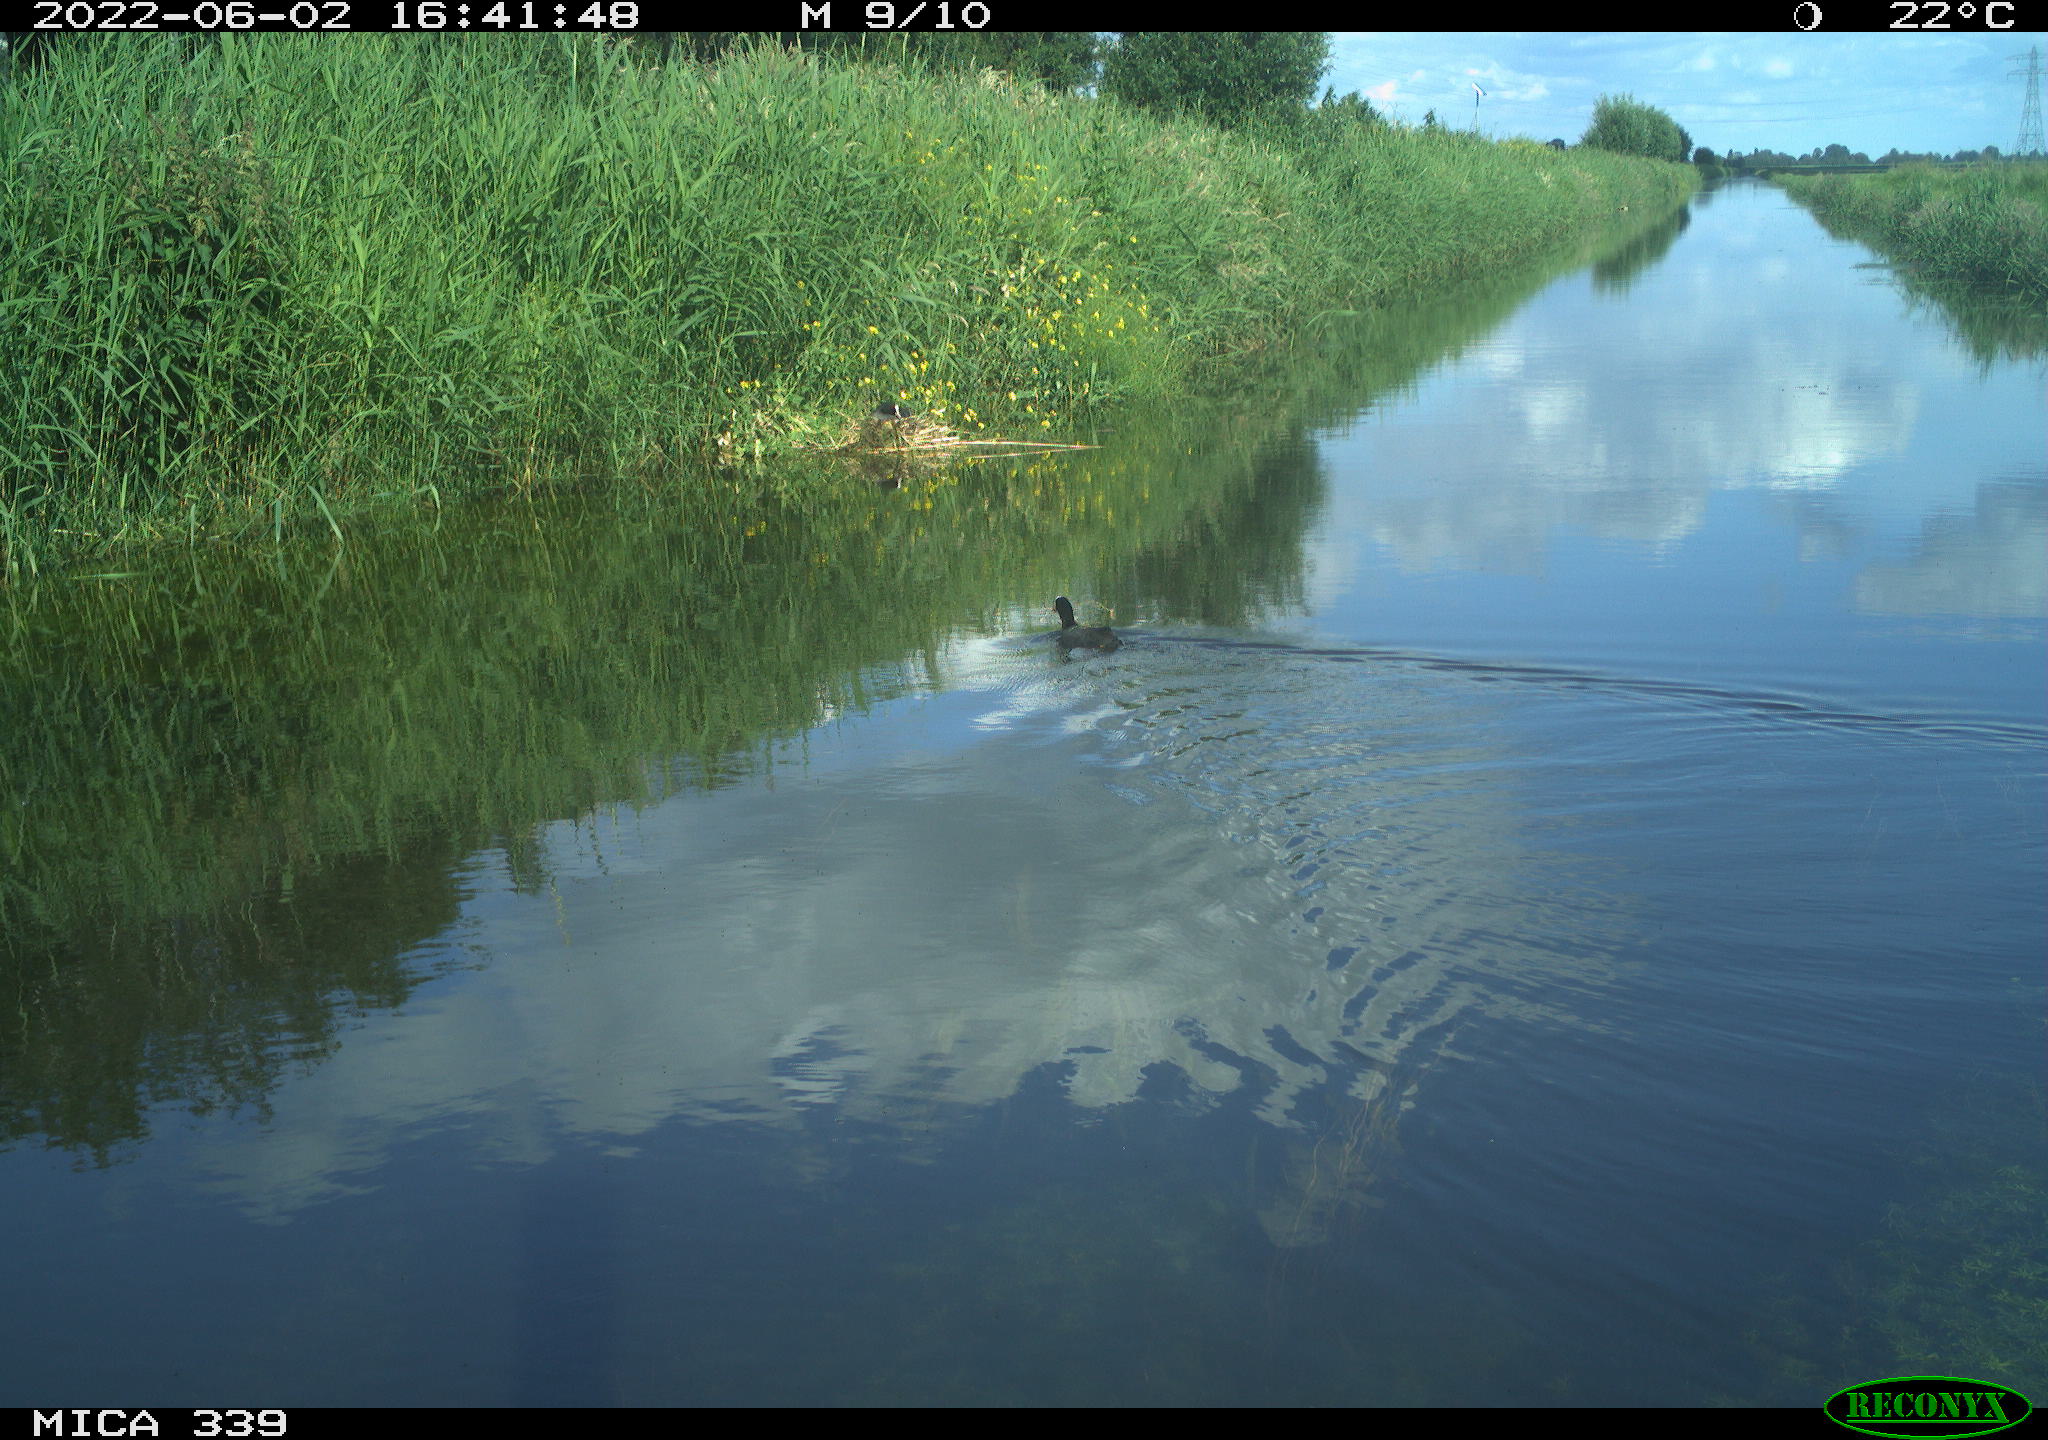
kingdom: Animalia
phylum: Chordata
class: Aves
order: Gruiformes
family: Rallidae
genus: Fulica
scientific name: Fulica atra
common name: Eurasian coot
